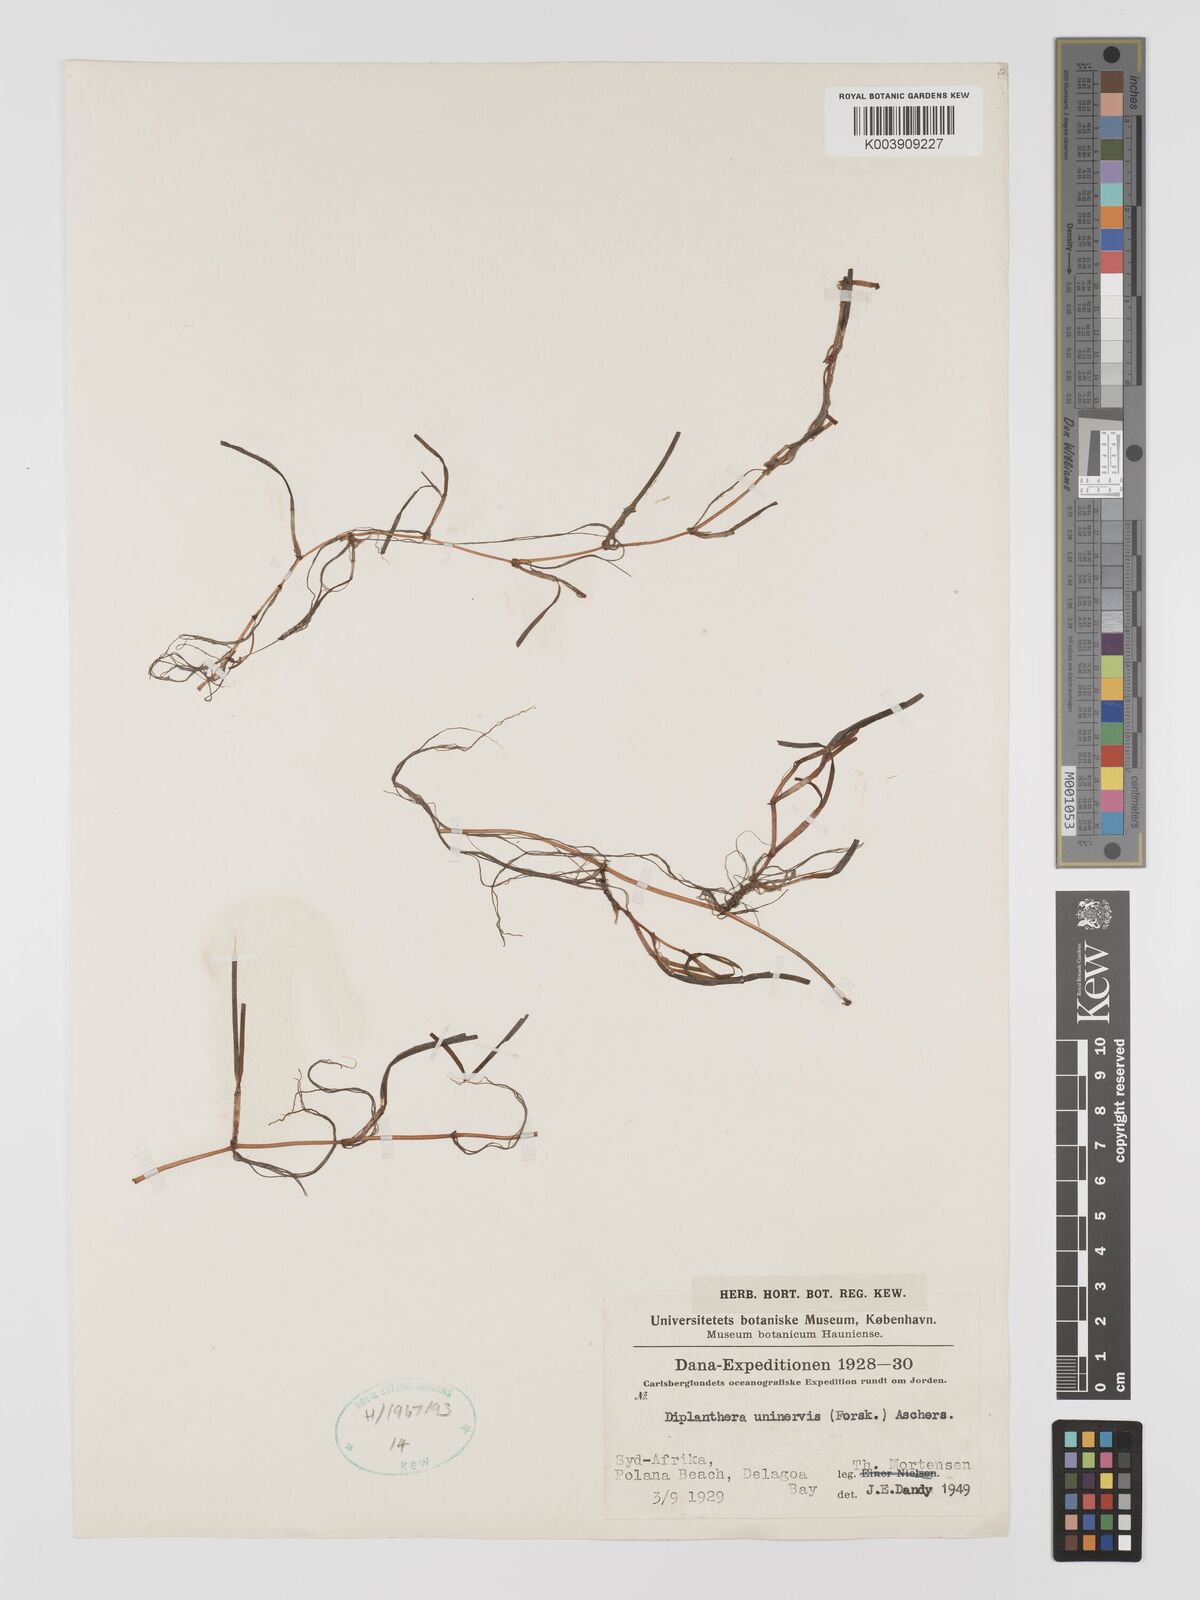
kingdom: Plantae
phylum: Tracheophyta
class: Liliopsida
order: Alismatales
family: Cymodoceaceae
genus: Halodule
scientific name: Halodule uninervis
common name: Narrowleaf seagrass
